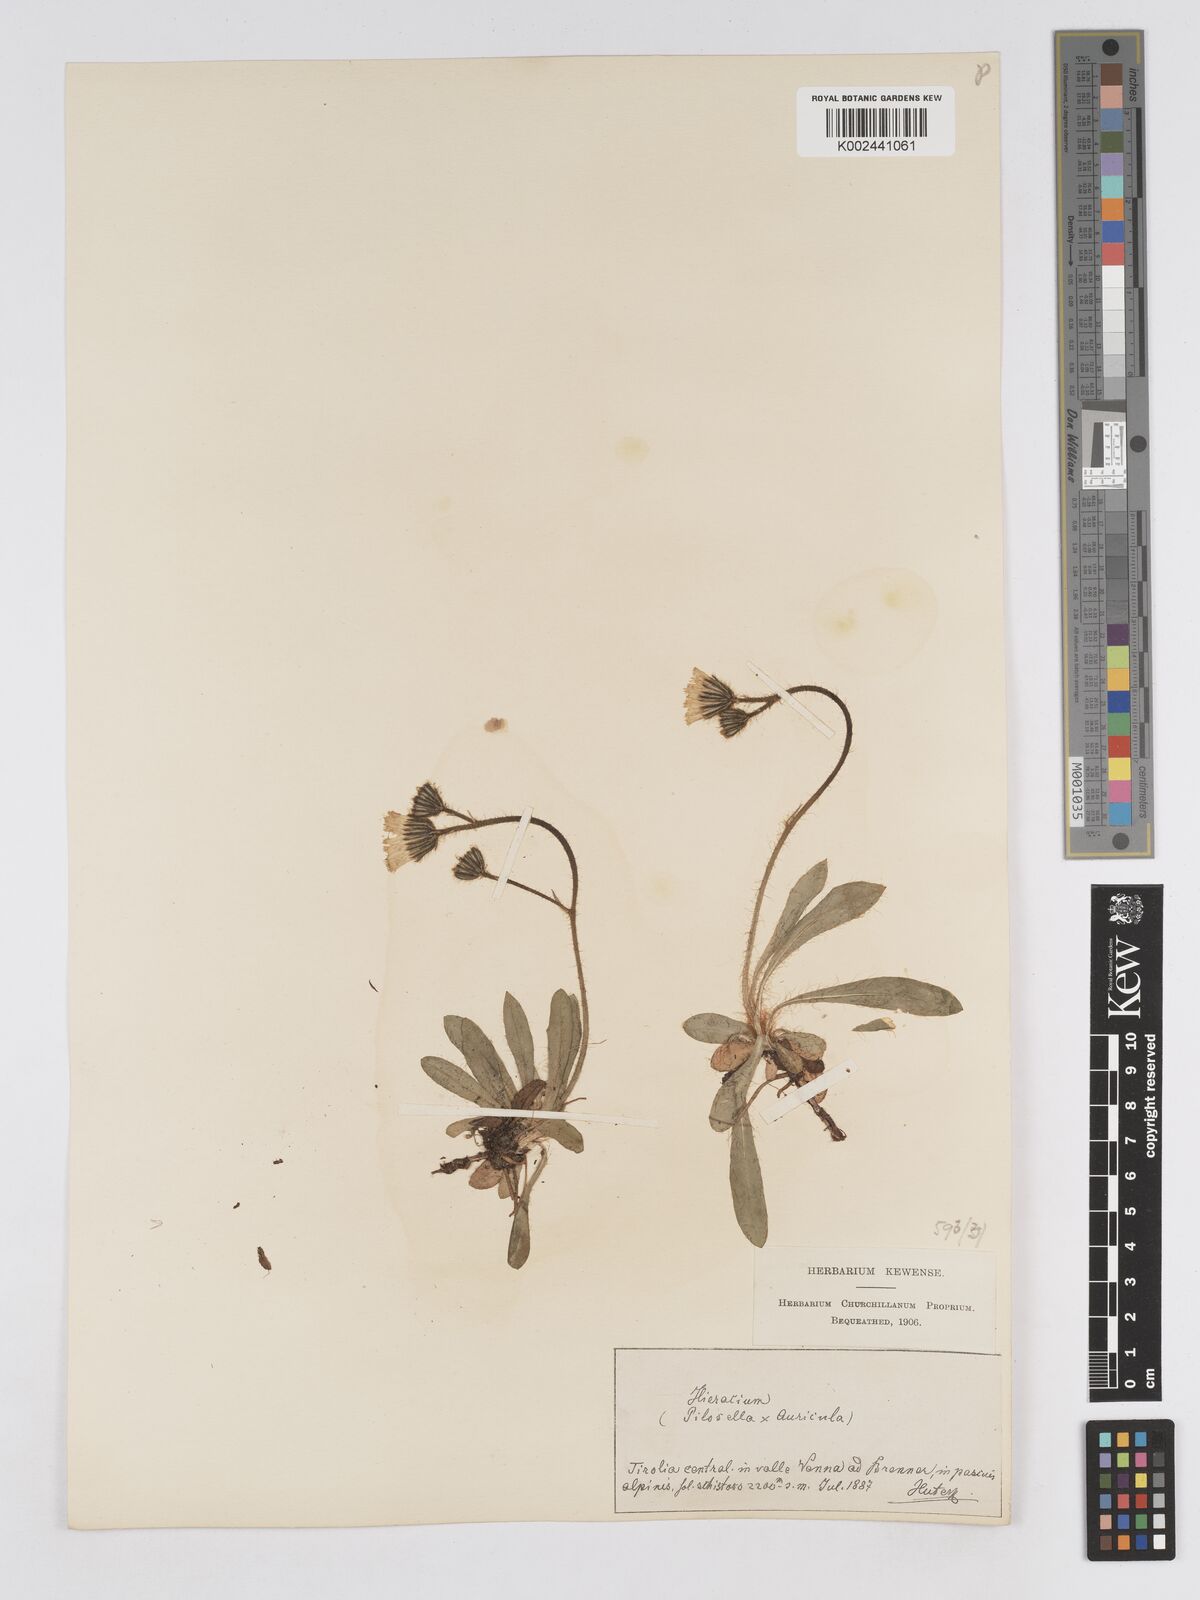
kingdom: Plantae
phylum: Tracheophyta
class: Magnoliopsida
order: Asterales
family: Asteraceae
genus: Pilosella
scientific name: Pilosella sphaerocephala
